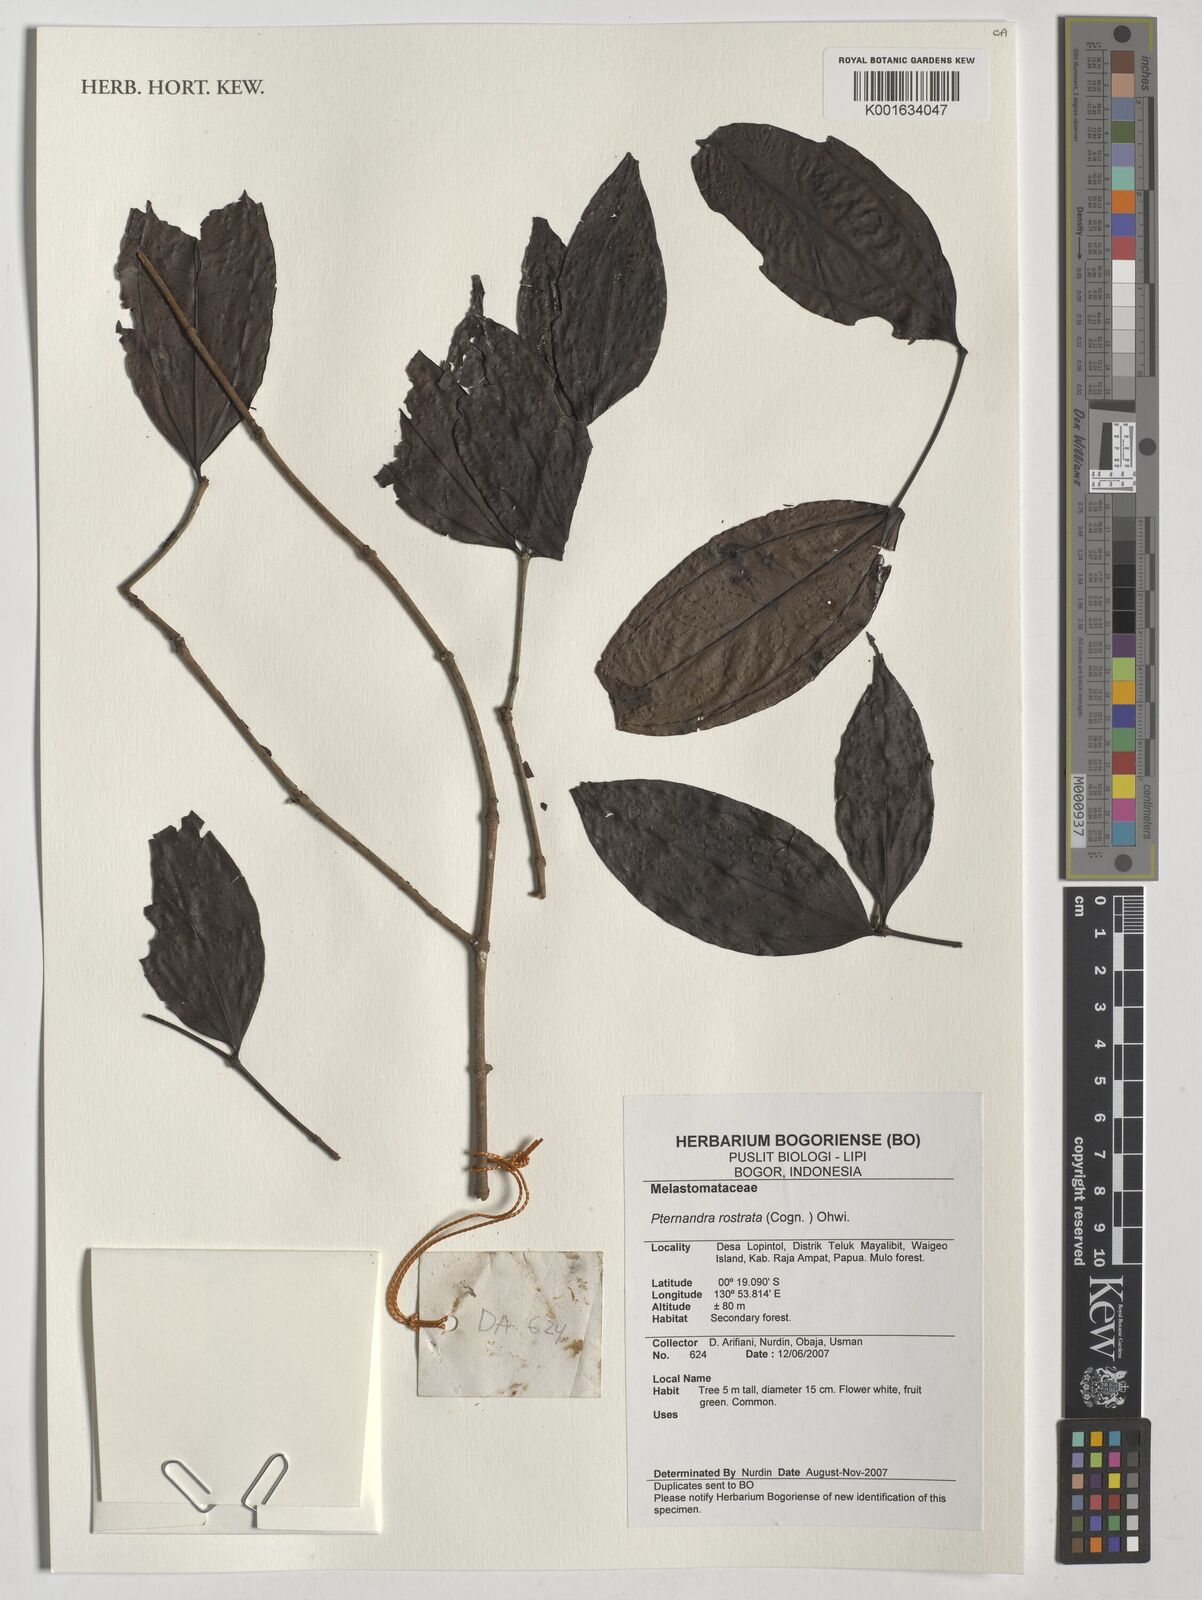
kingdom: Plantae
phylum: Tracheophyta
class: Magnoliopsida
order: Myrtales
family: Melastomataceae
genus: Pternandra
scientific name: Pternandra rostrata
